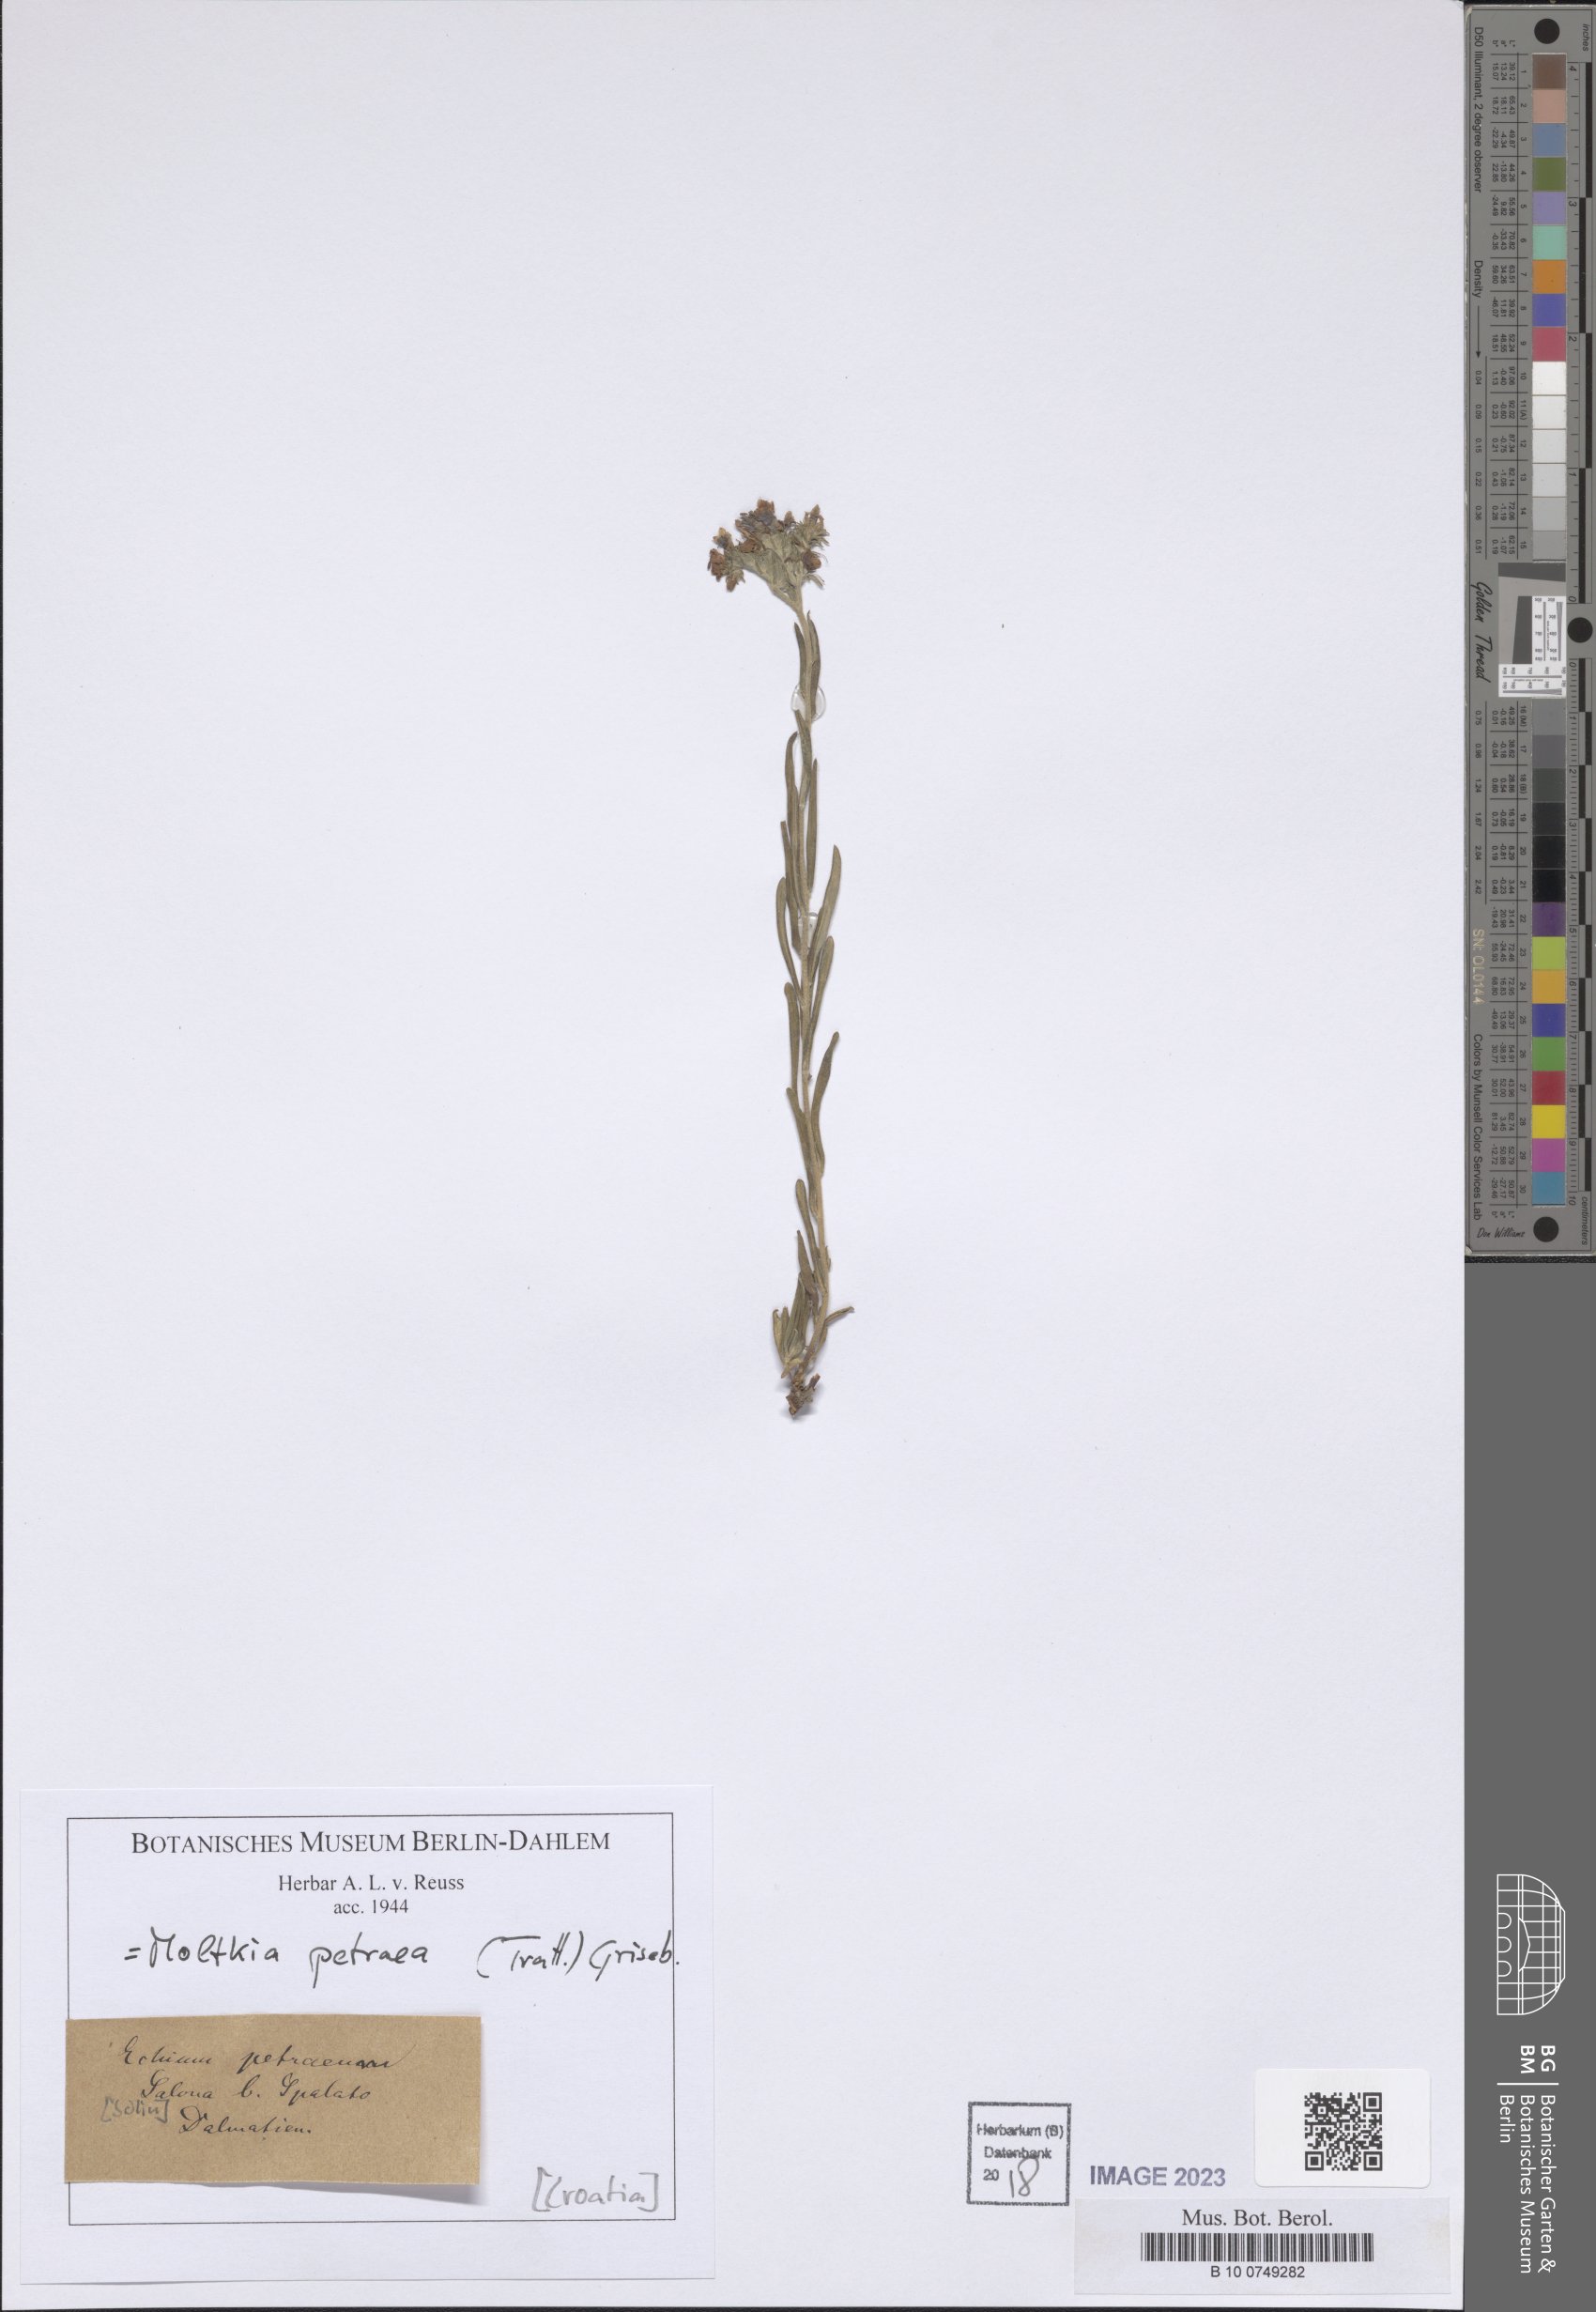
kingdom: Plantae
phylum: Tracheophyta
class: Magnoliopsida
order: Boraginales
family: Boraginaceae
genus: Moltkia
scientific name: Moltkia petraea
